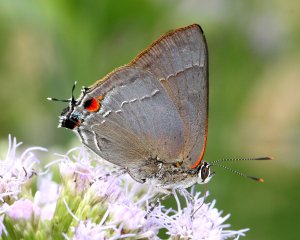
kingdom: Animalia
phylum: Arthropoda
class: Insecta
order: Lepidoptera
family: Lycaenidae
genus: Thecla
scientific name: Thecla marius
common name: Marius Hairstreak
